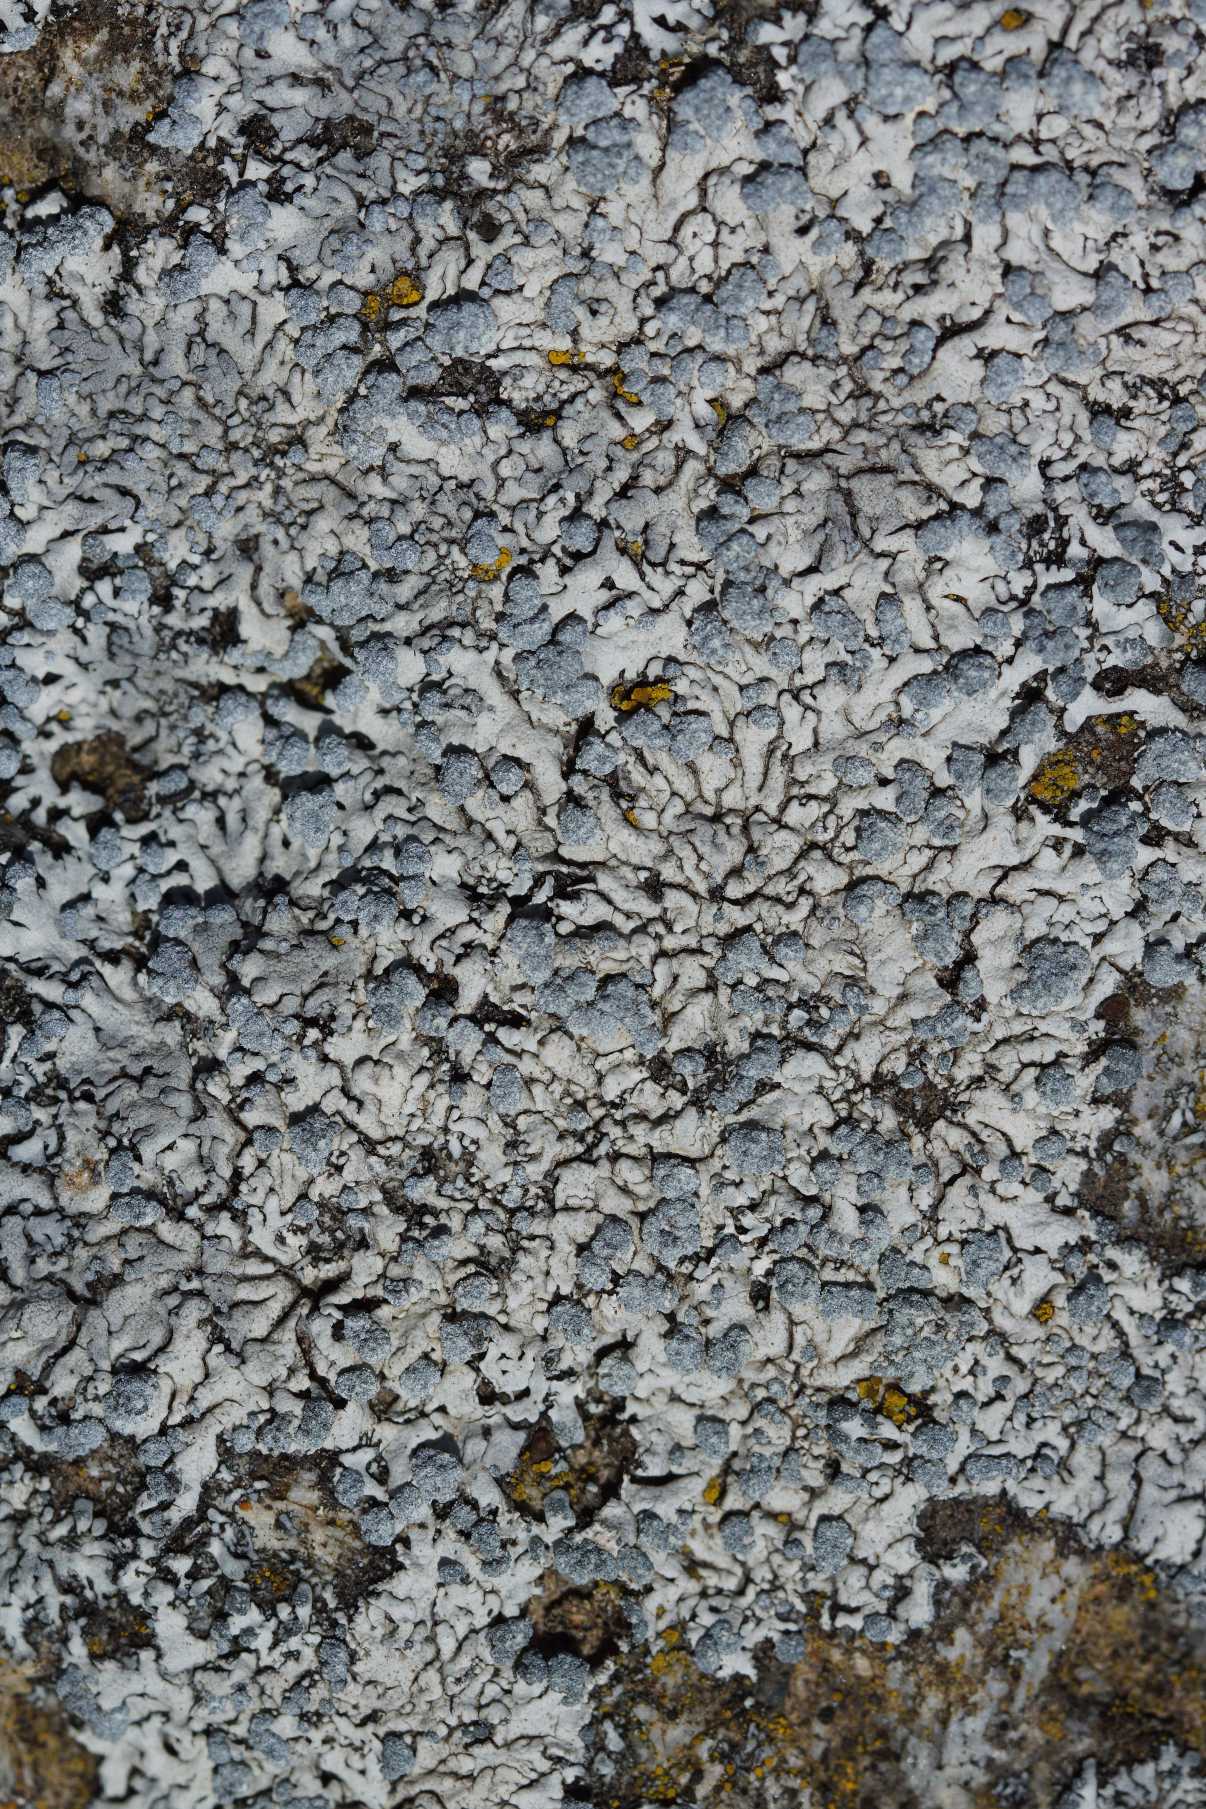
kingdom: Fungi
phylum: Ascomycota
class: Lecanoromycetes
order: Caliciales
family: Physciaceae
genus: Physcia
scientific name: Physcia caesia
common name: Blågrå rosetlav
